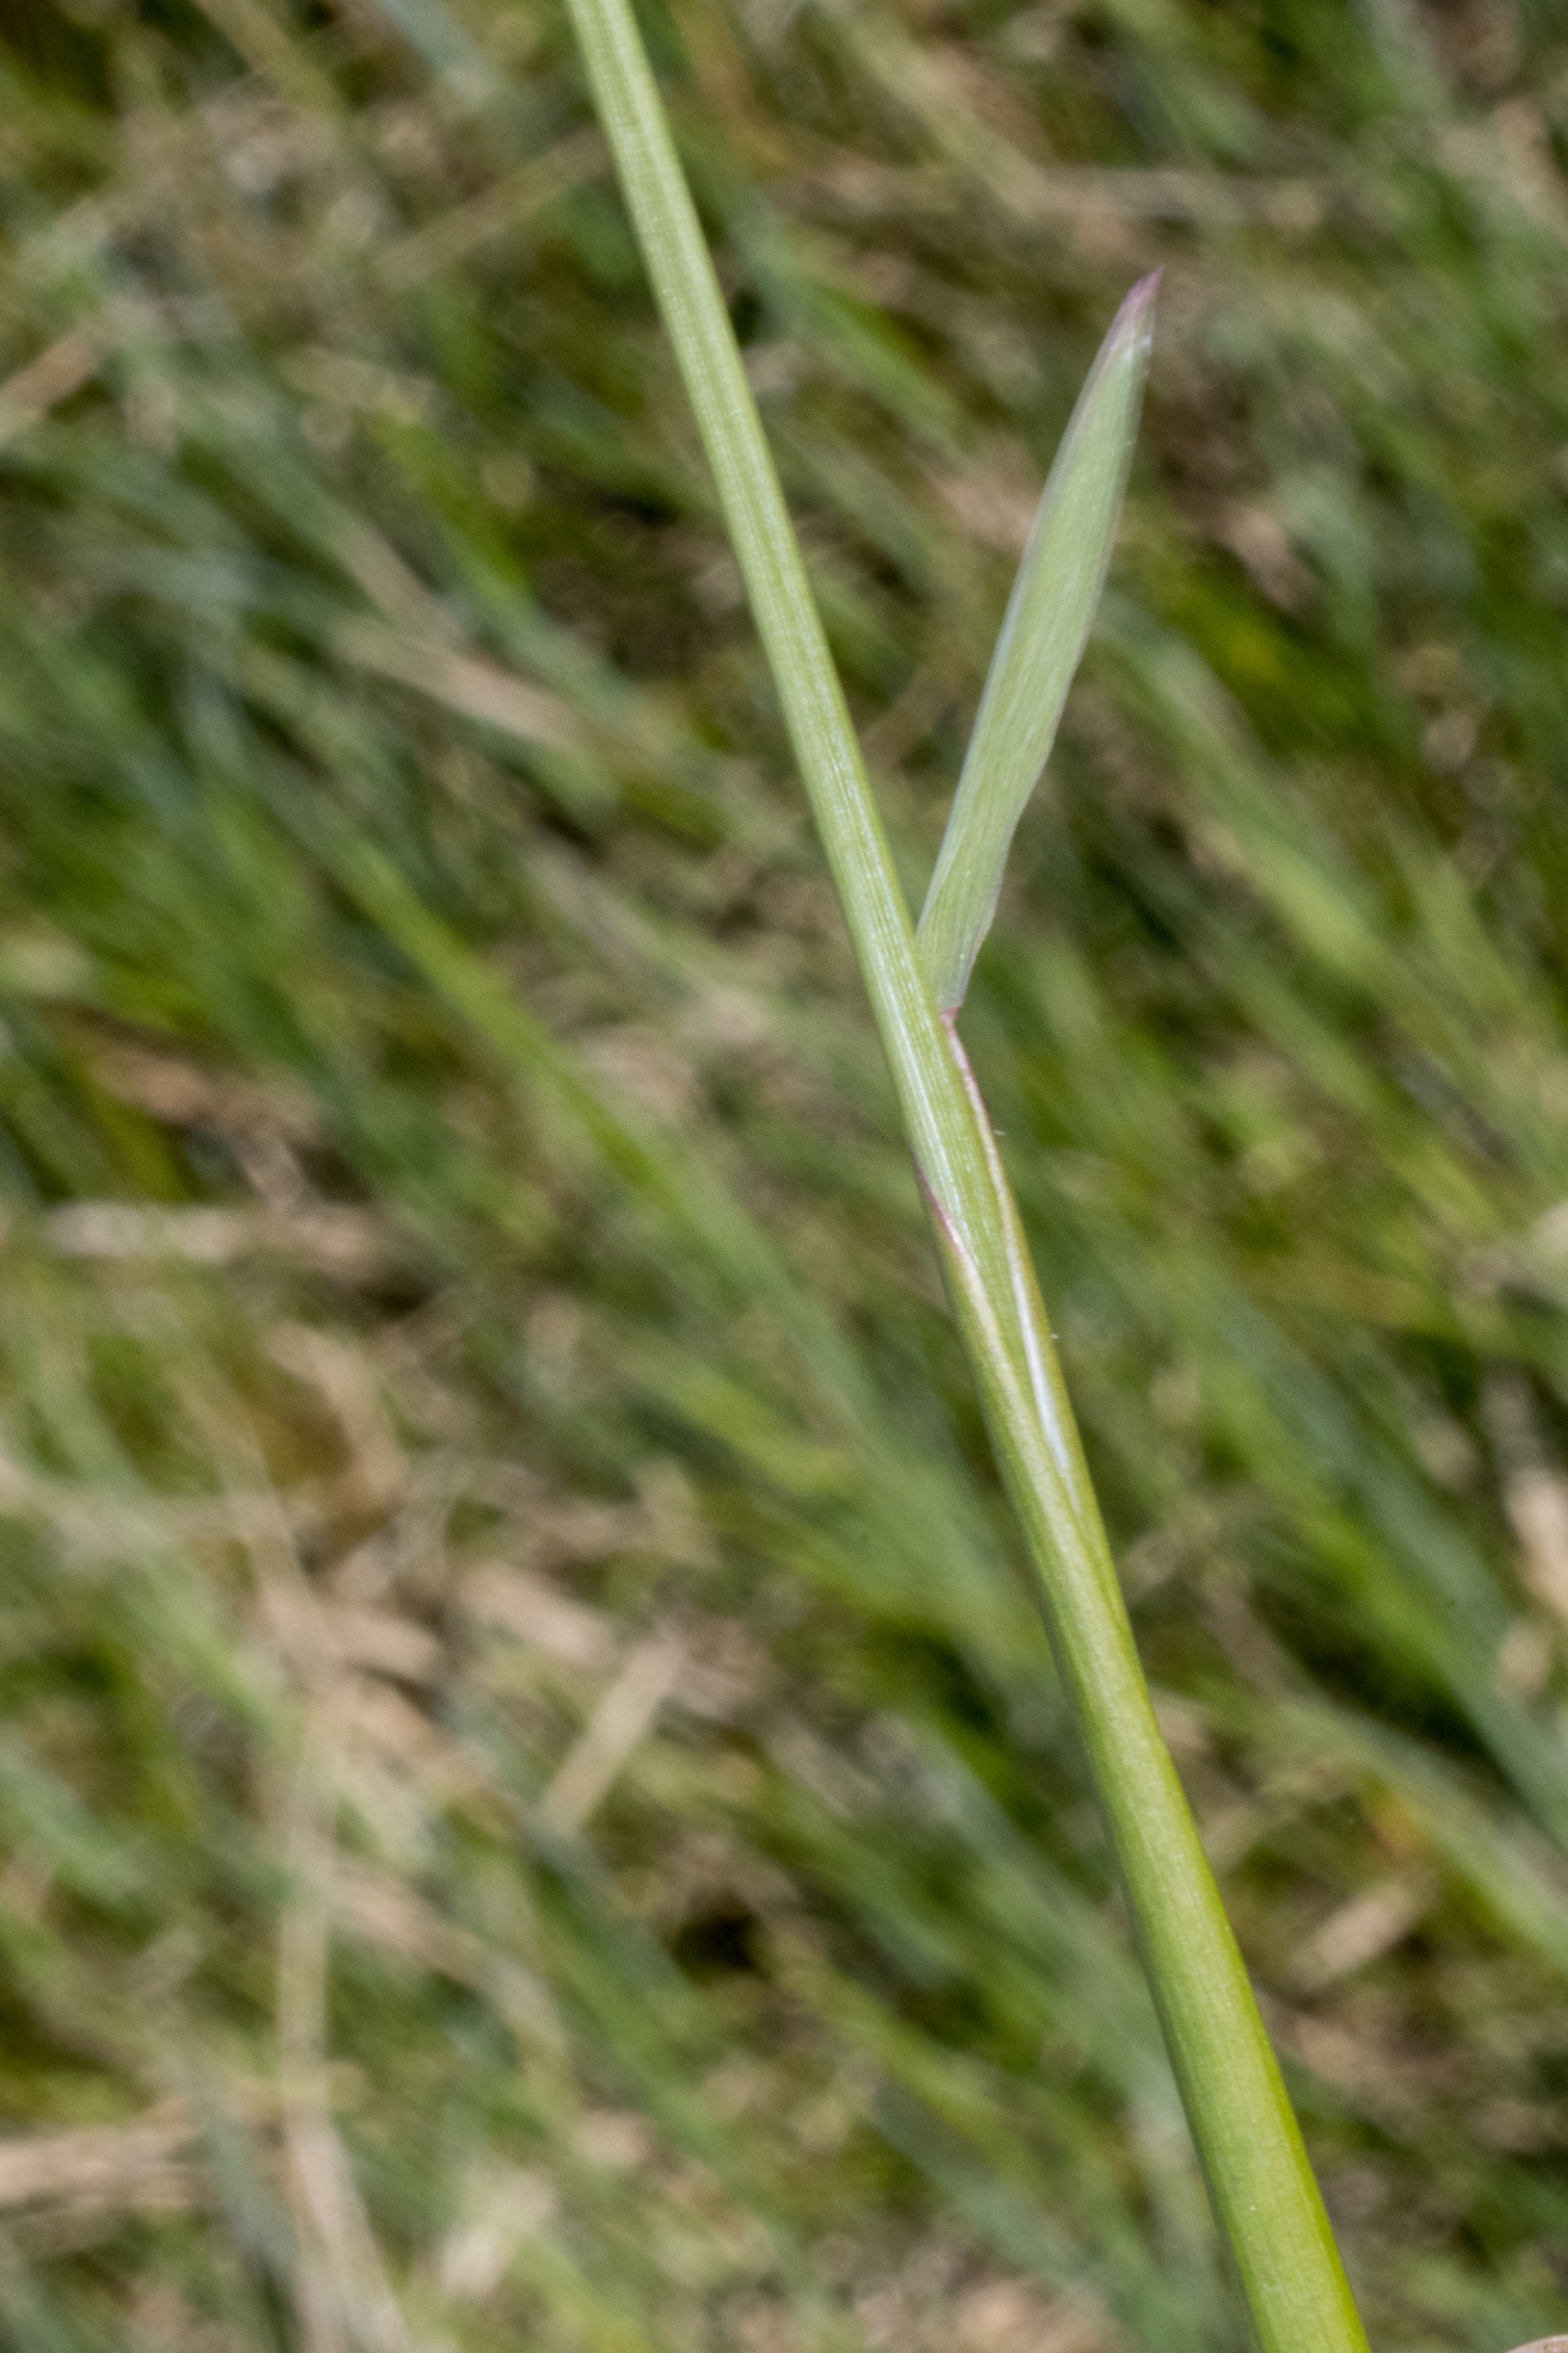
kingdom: Plantae
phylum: Tracheophyta
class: Liliopsida
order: Poales
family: Poaceae
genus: Alopecurus
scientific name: Alopecurus pratensis
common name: Eng-rævehale
